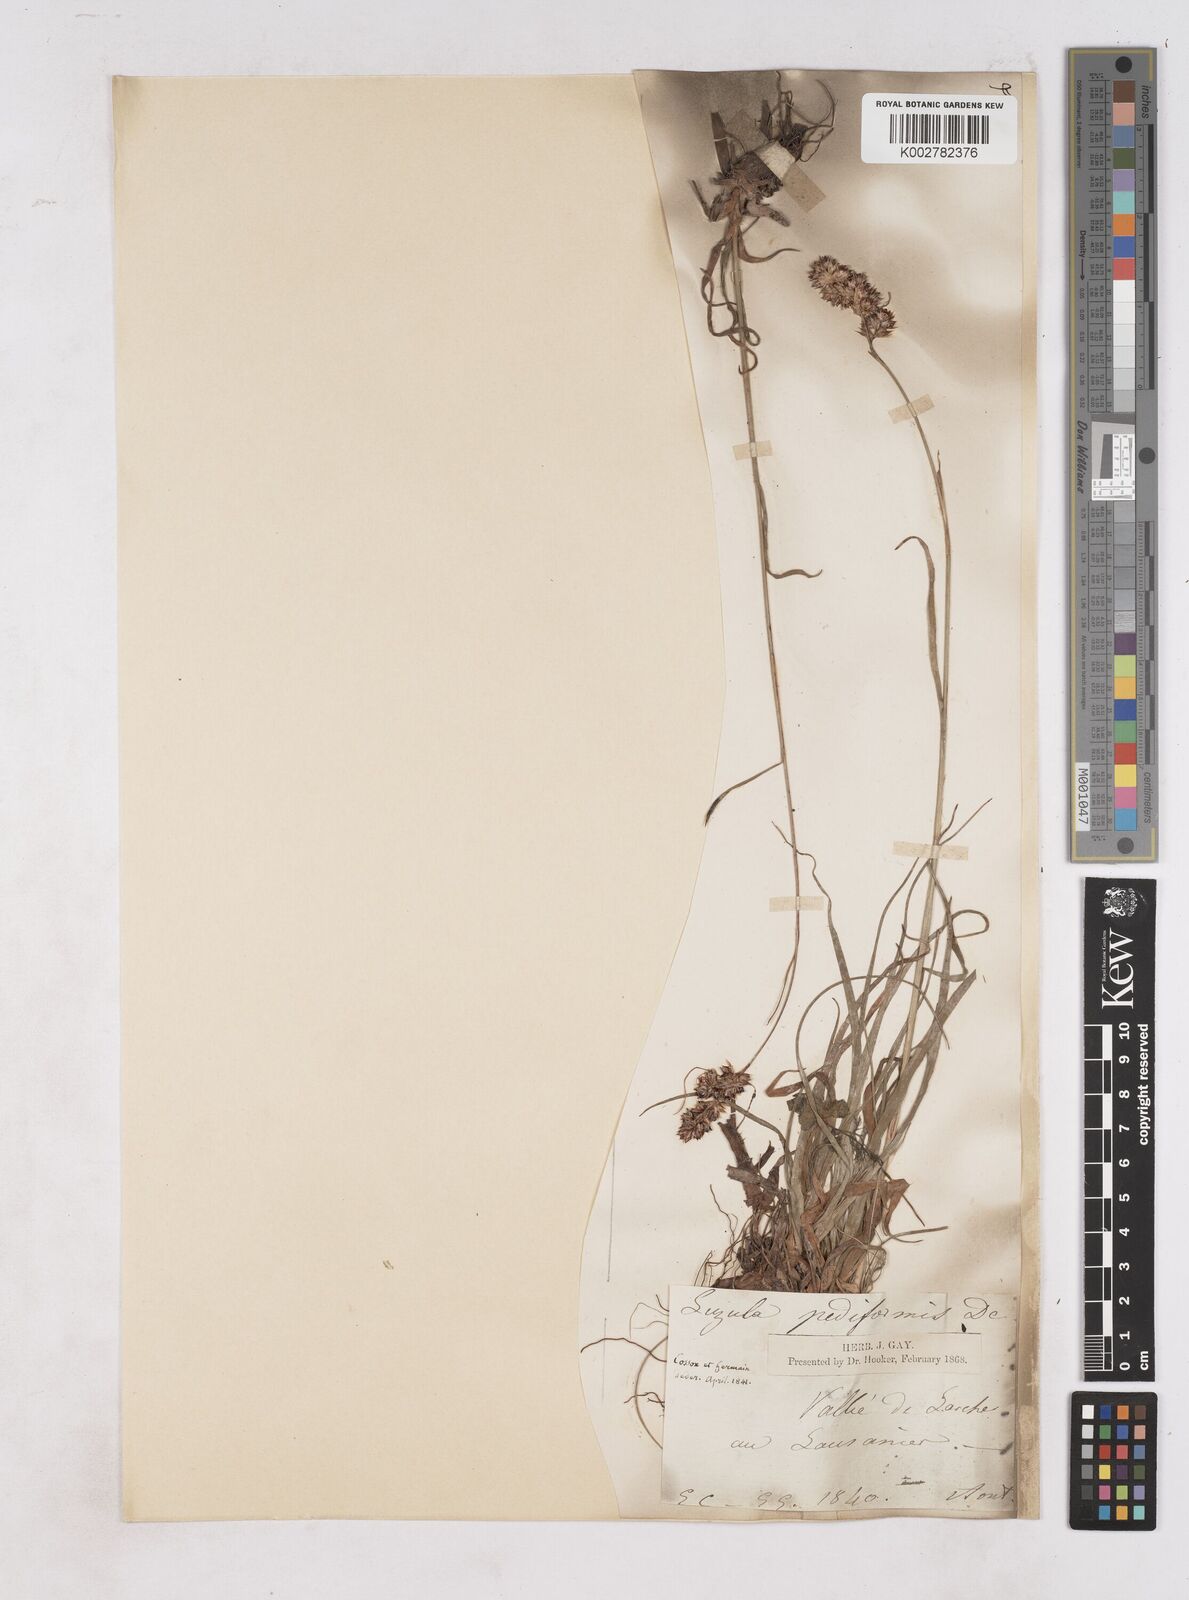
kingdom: Plantae
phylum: Tracheophyta
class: Liliopsida
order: Poales
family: Juncaceae
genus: Luzula
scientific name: Luzula pediformis
